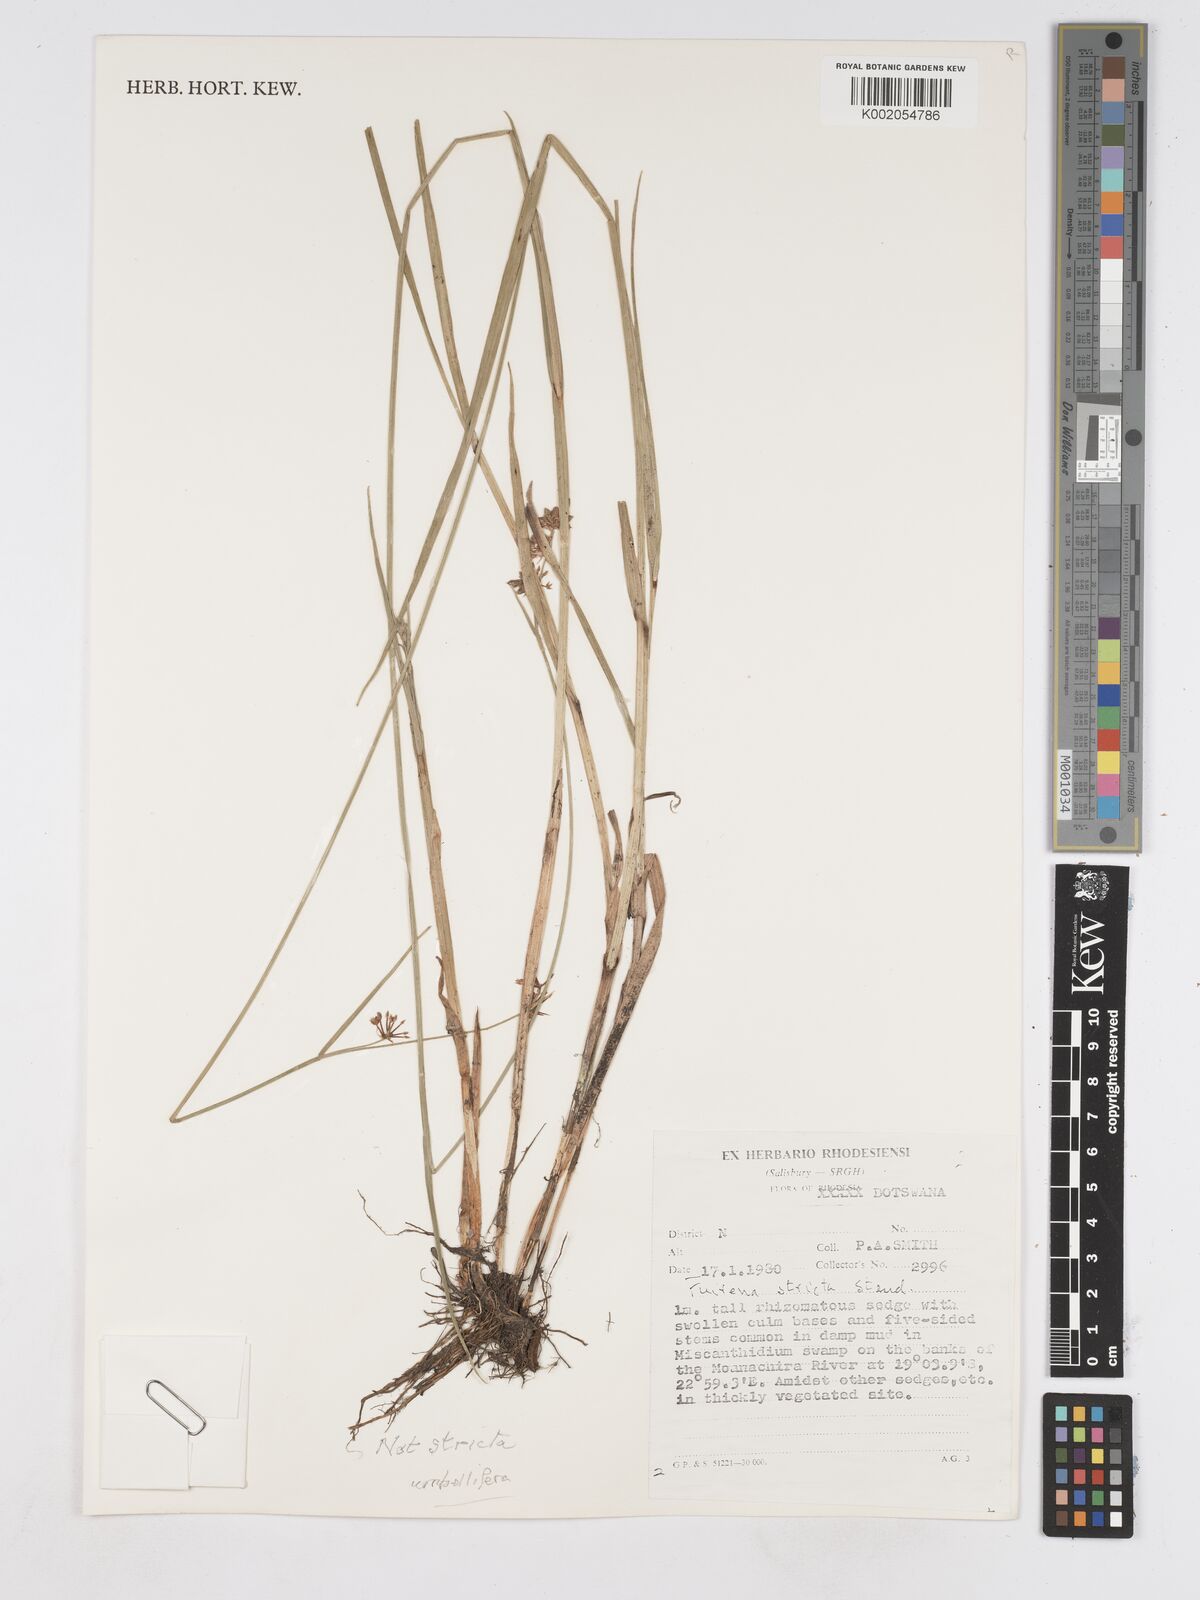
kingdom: Plantae
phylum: Tracheophyta
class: Liliopsida
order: Poales
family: Cyperaceae
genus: Fuirena
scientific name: Fuirena stricta
